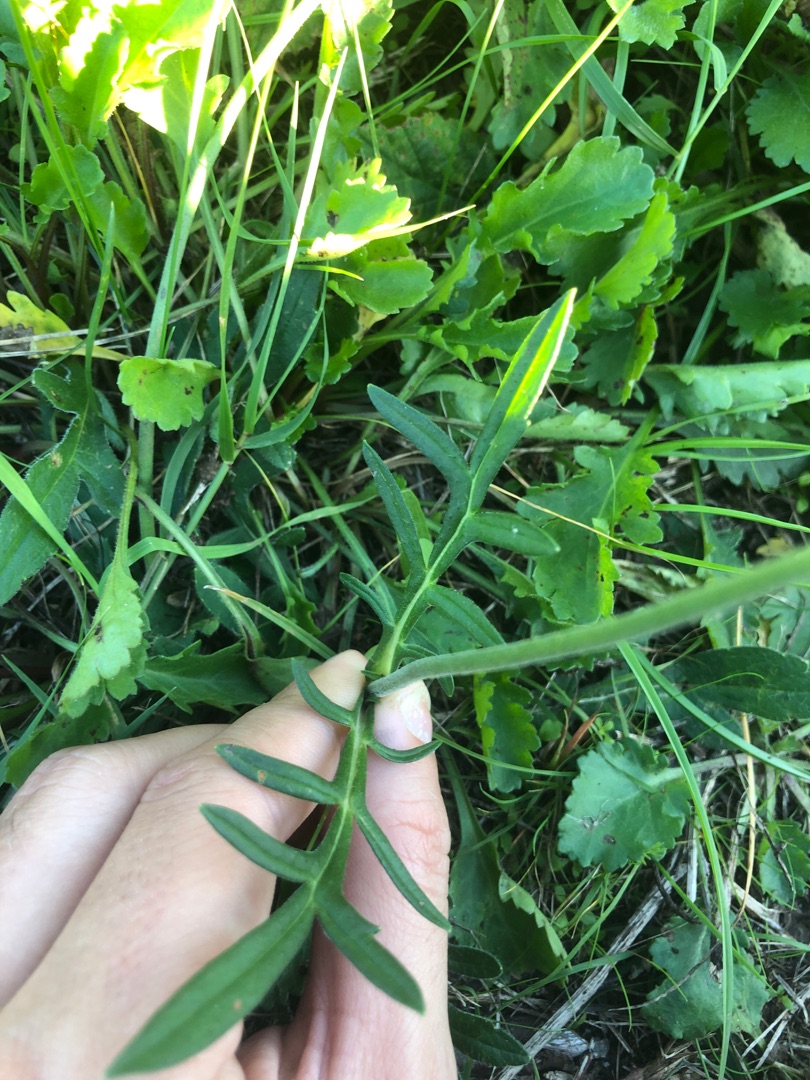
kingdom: Plantae
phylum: Tracheophyta
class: Magnoliopsida
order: Dipsacales
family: Caprifoliaceae
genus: Knautia
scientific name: Knautia arvensis
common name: Blåhat
